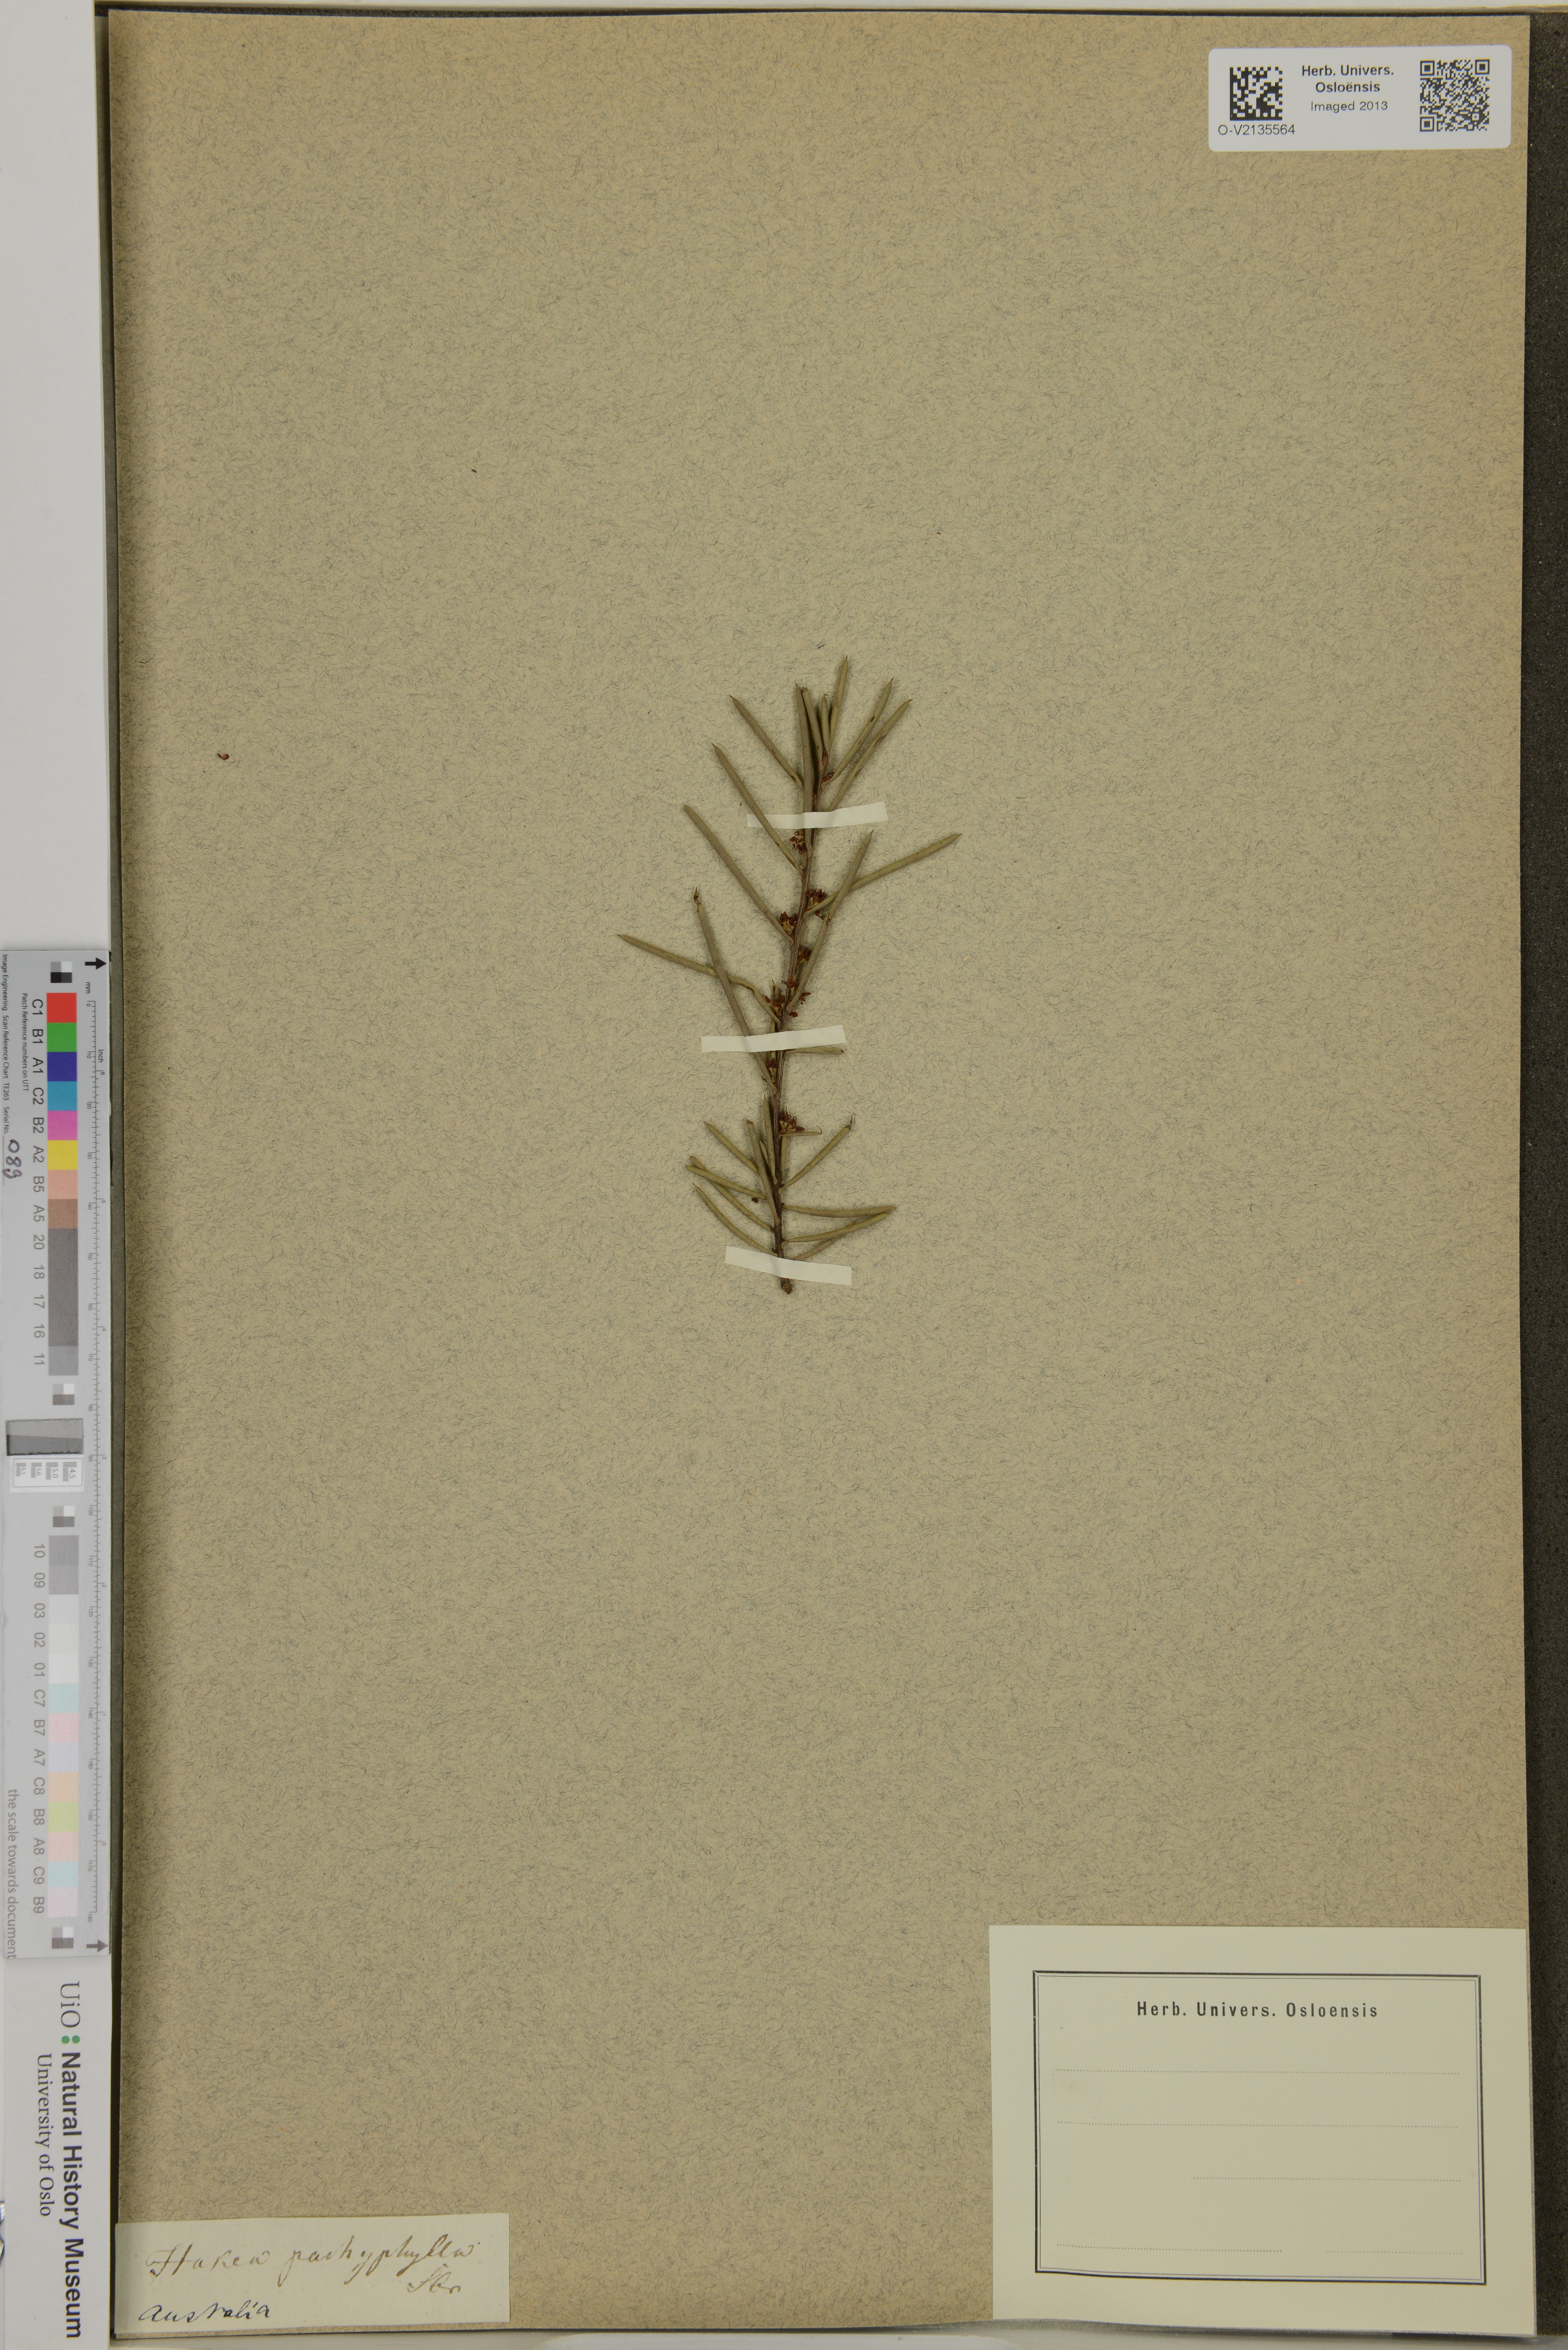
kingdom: Plantae
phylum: Tracheophyta
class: Magnoliopsida
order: Proteales
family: Proteaceae
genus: Hakea
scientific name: Hakea pachyphylla
